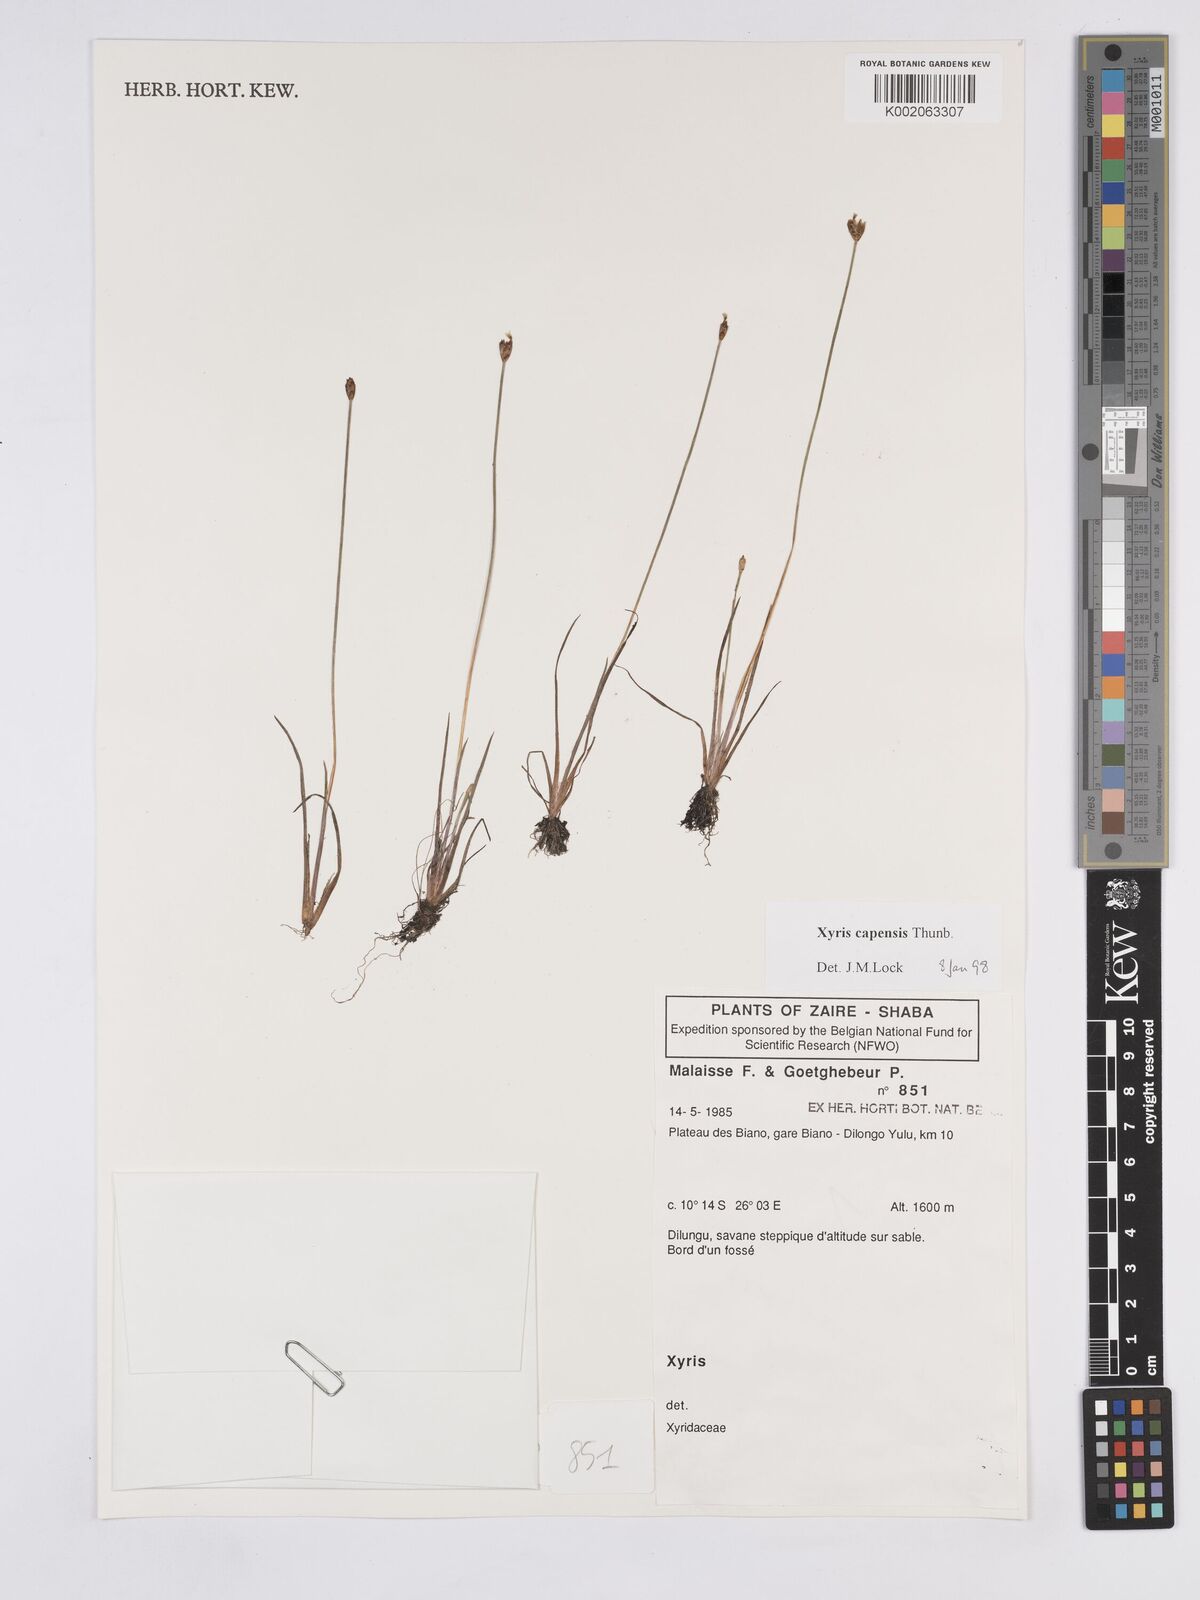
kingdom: Plantae
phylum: Tracheophyta
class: Liliopsida
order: Poales
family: Xyridaceae
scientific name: Xyridaceae
